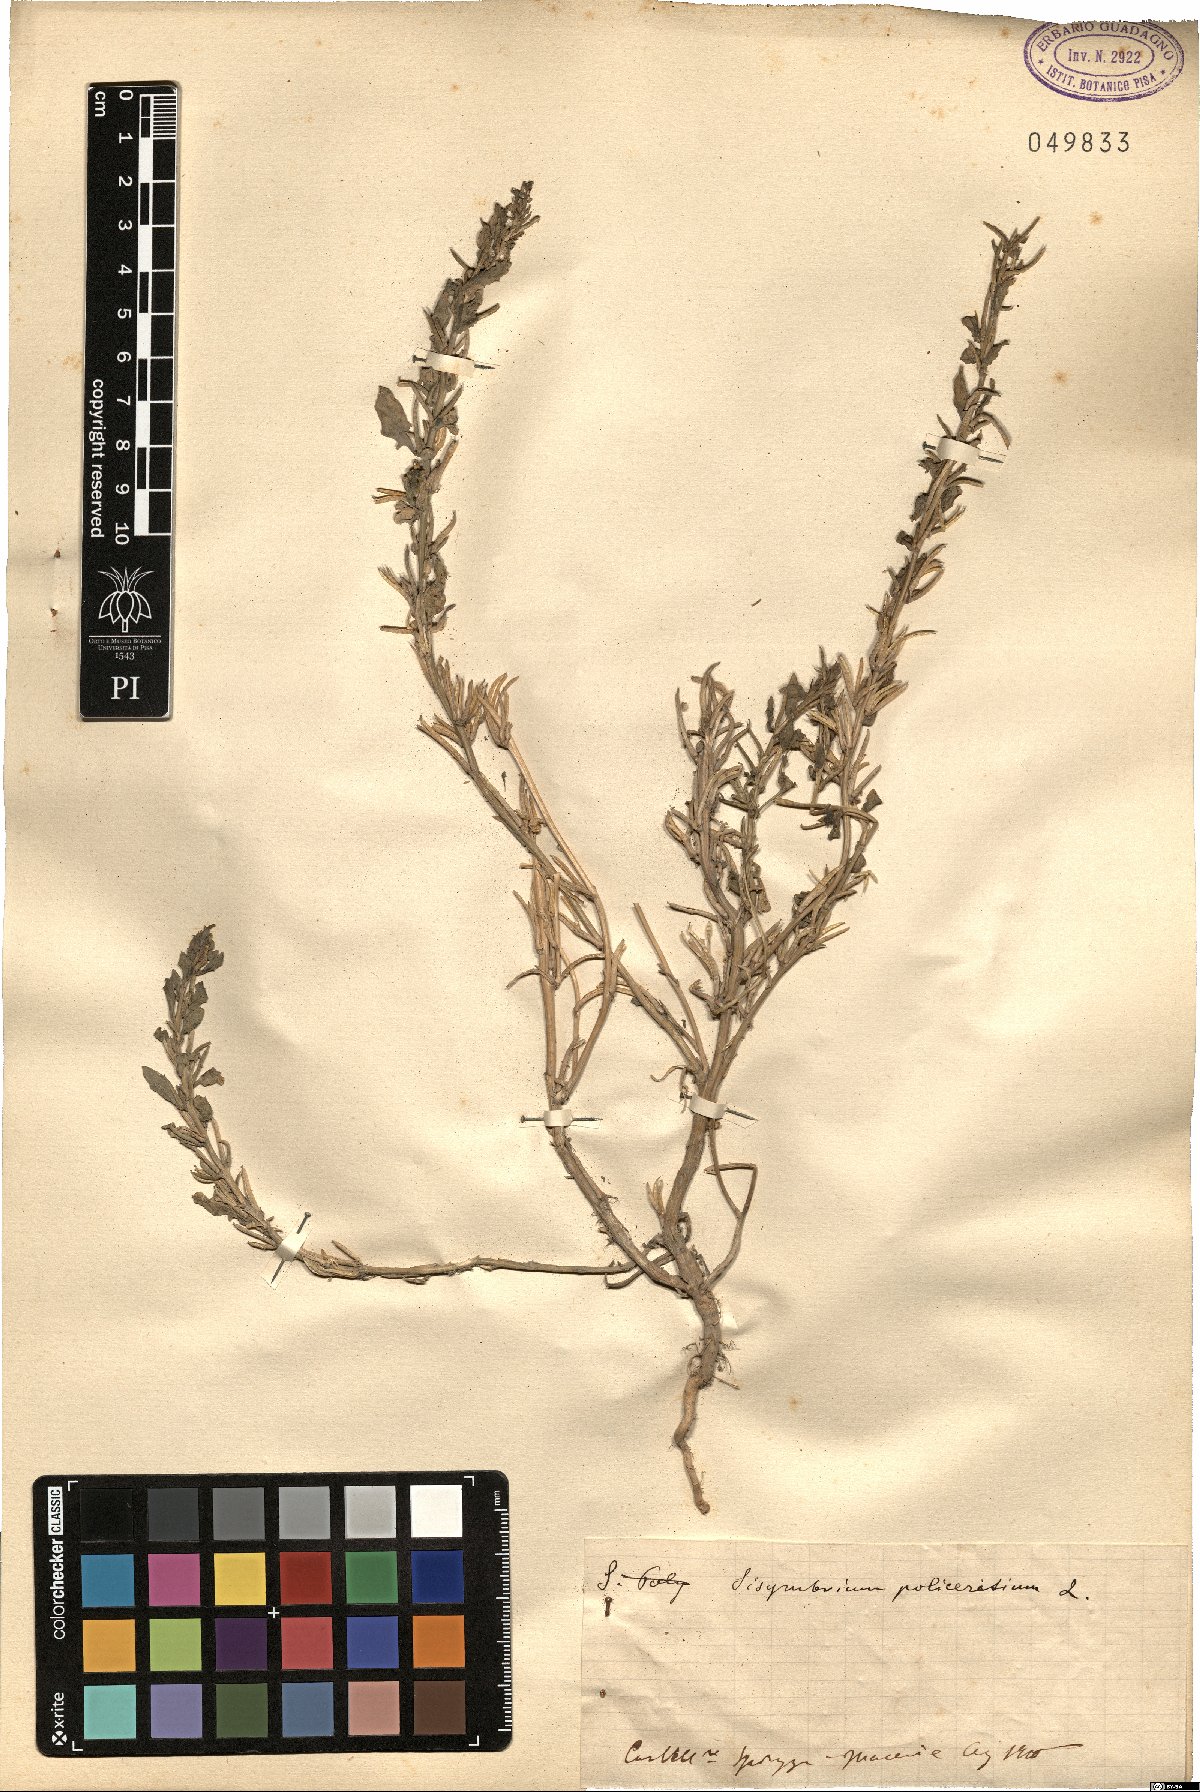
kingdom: Plantae
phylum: Tracheophyta
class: Magnoliopsida
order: Brassicales
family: Brassicaceae
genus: Sisymbrium
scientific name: Sisymbrium polyceratium
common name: Shortfruit hedgemustard
